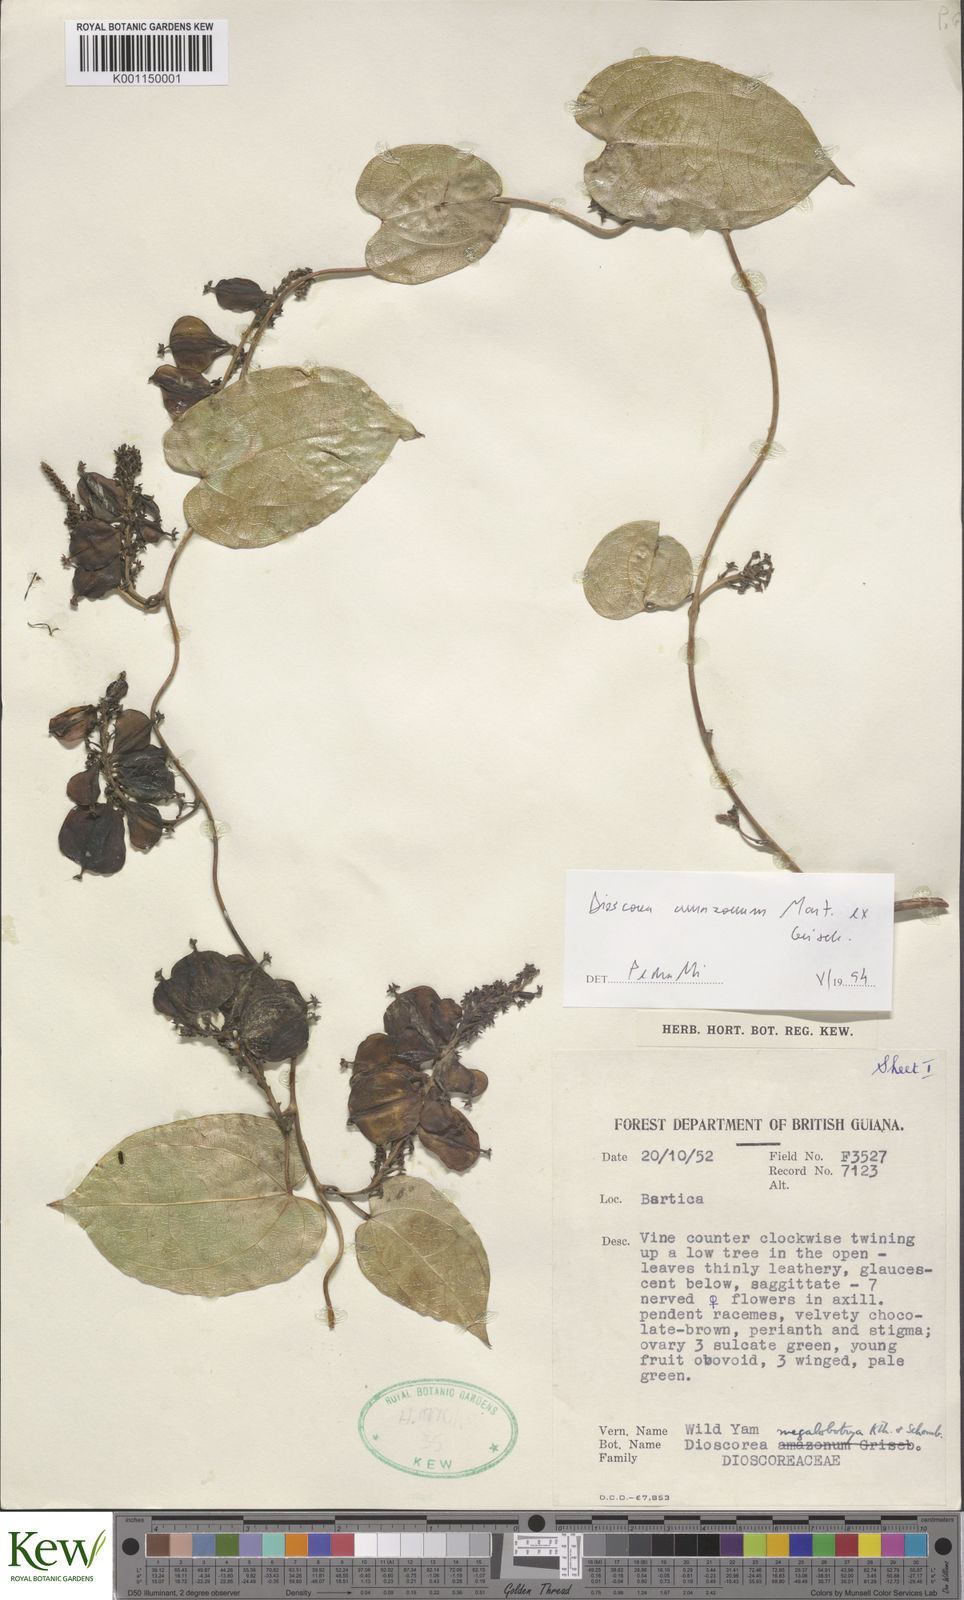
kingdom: Plantae
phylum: Tracheophyta
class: Liliopsida
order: Dioscoreales
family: Dioscoreaceae
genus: Dioscorea
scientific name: Dioscorea amazonum
